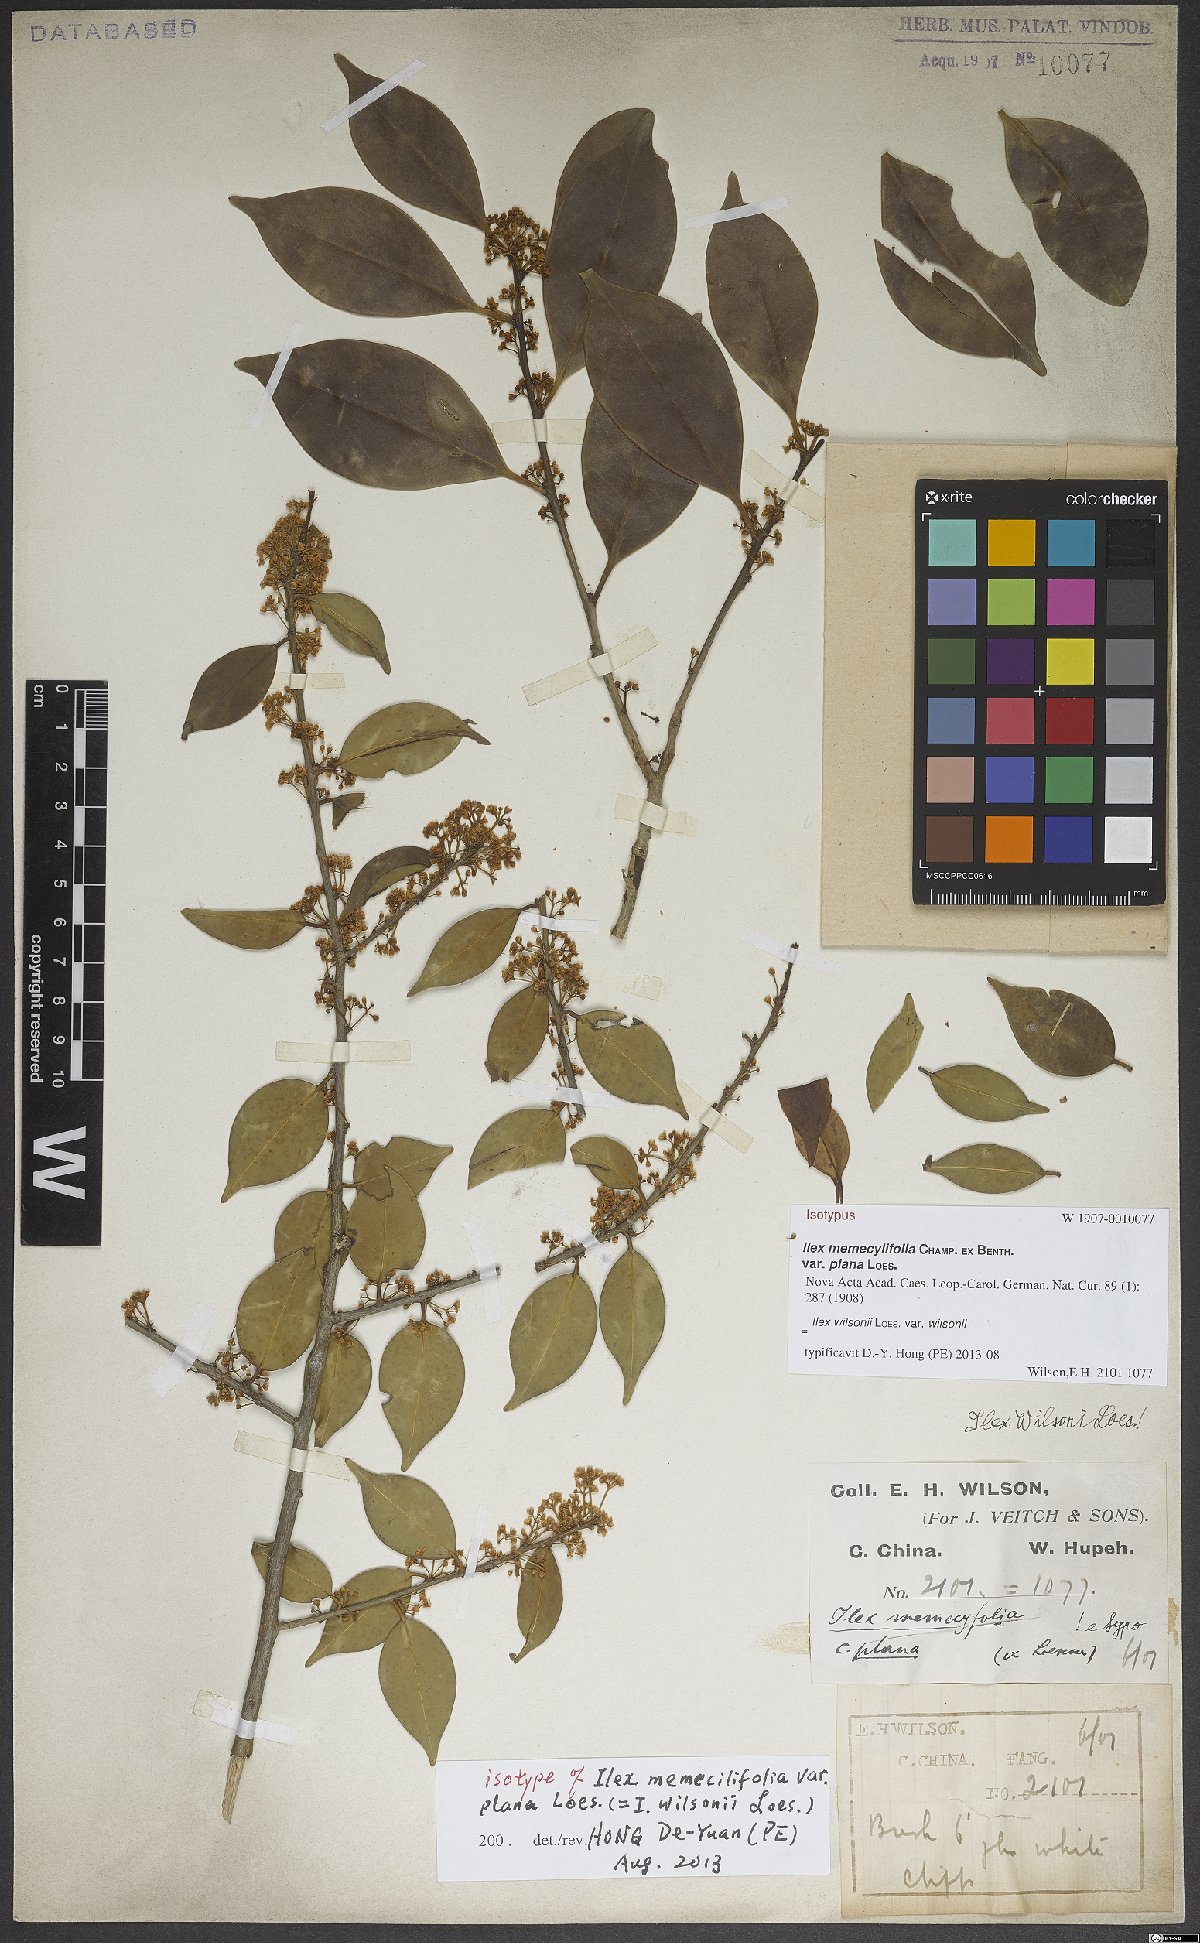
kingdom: Plantae
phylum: Tracheophyta
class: Magnoliopsida
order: Aquifoliales
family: Aquifoliaceae
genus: Ilex
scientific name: Ilex wilsonii
